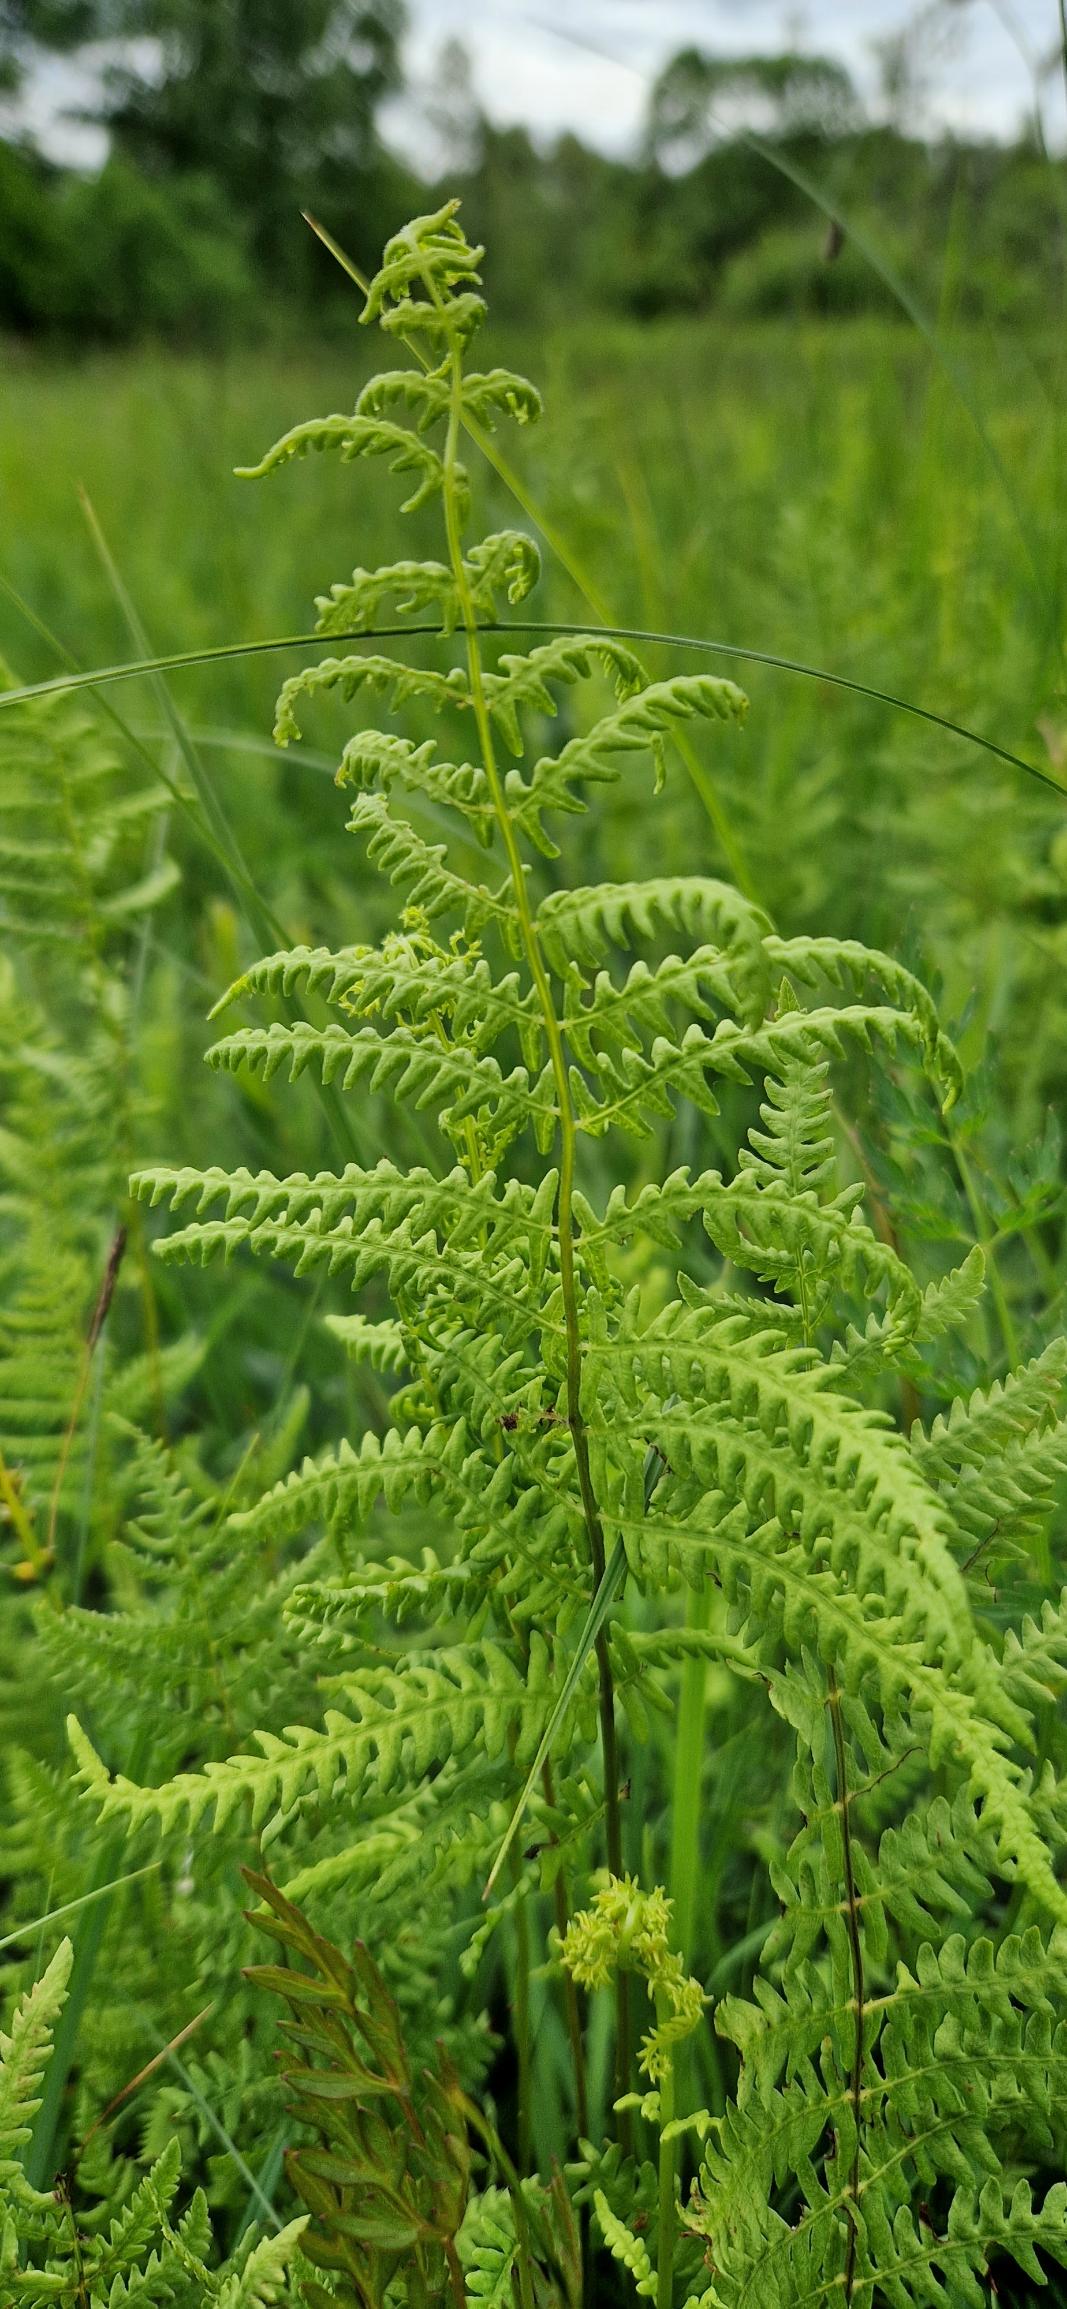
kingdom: Plantae
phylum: Tracheophyta
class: Polypodiopsida
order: Polypodiales
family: Thelypteridaceae
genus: Thelypteris
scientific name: Thelypteris palustris
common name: Kærmangeløv
